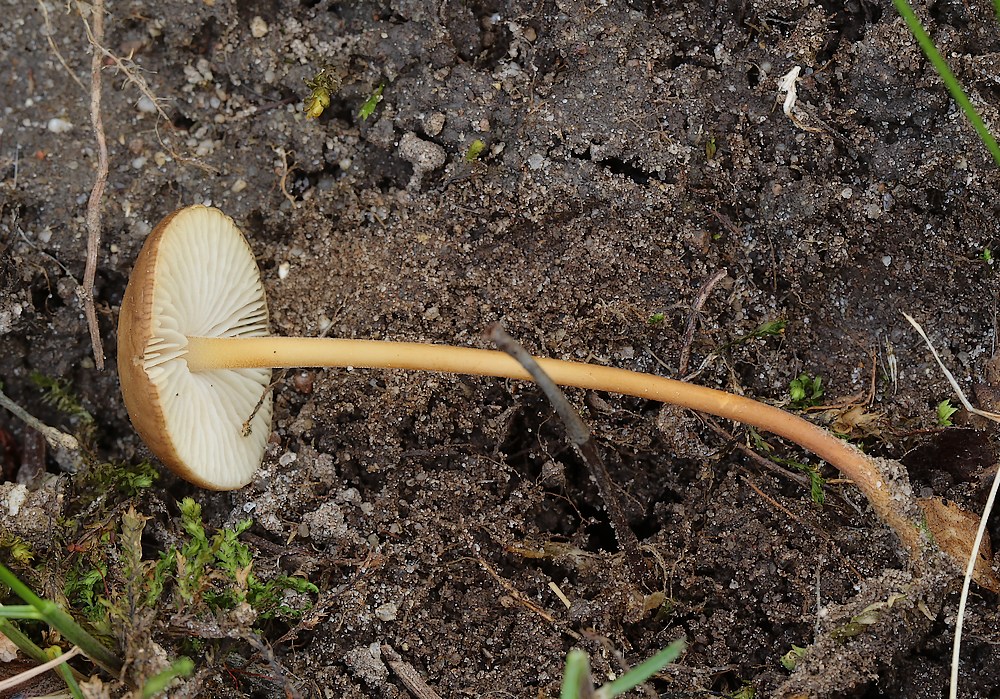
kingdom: Fungi
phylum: Basidiomycota
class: Agaricomycetes
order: Agaricales
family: Physalacriaceae
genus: Strobilurus
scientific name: Strobilurus
